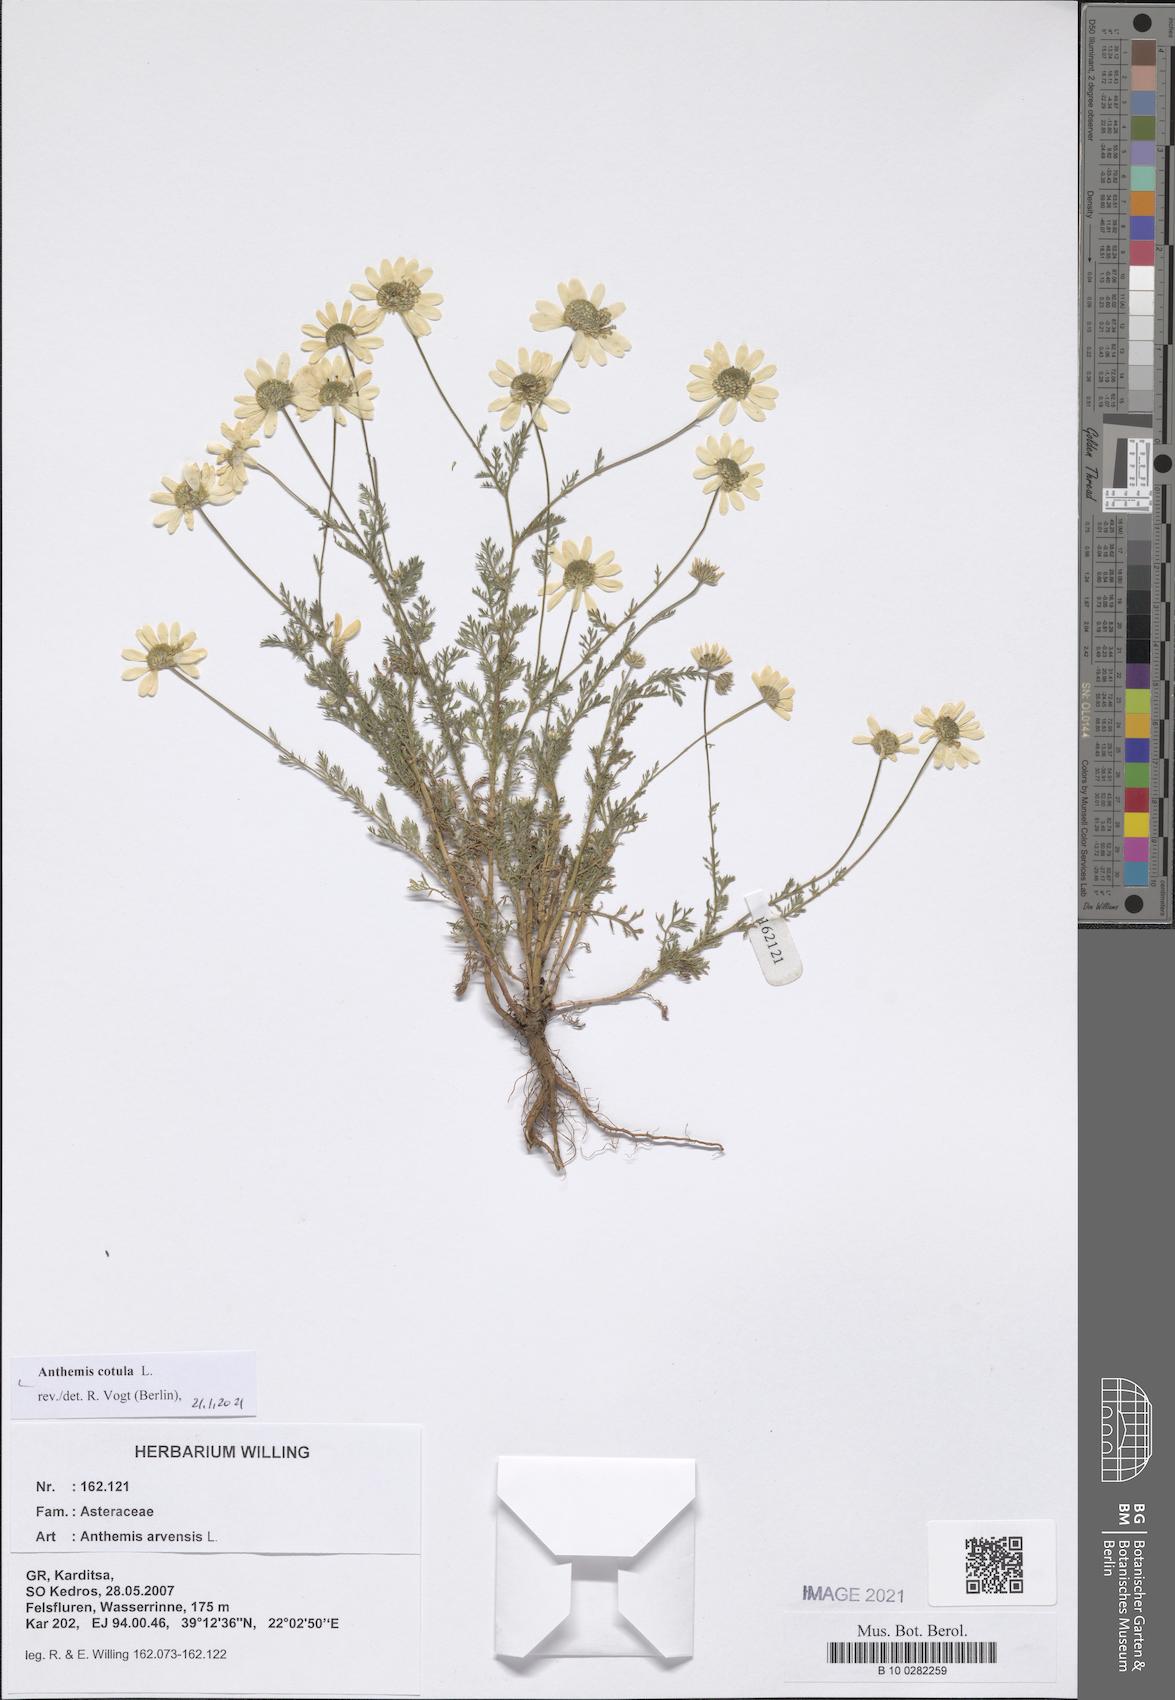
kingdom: Plantae
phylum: Tracheophyta
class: Magnoliopsida
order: Asterales
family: Asteraceae
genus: Anthemis
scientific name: Anthemis cotula
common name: Stinking chamomile
